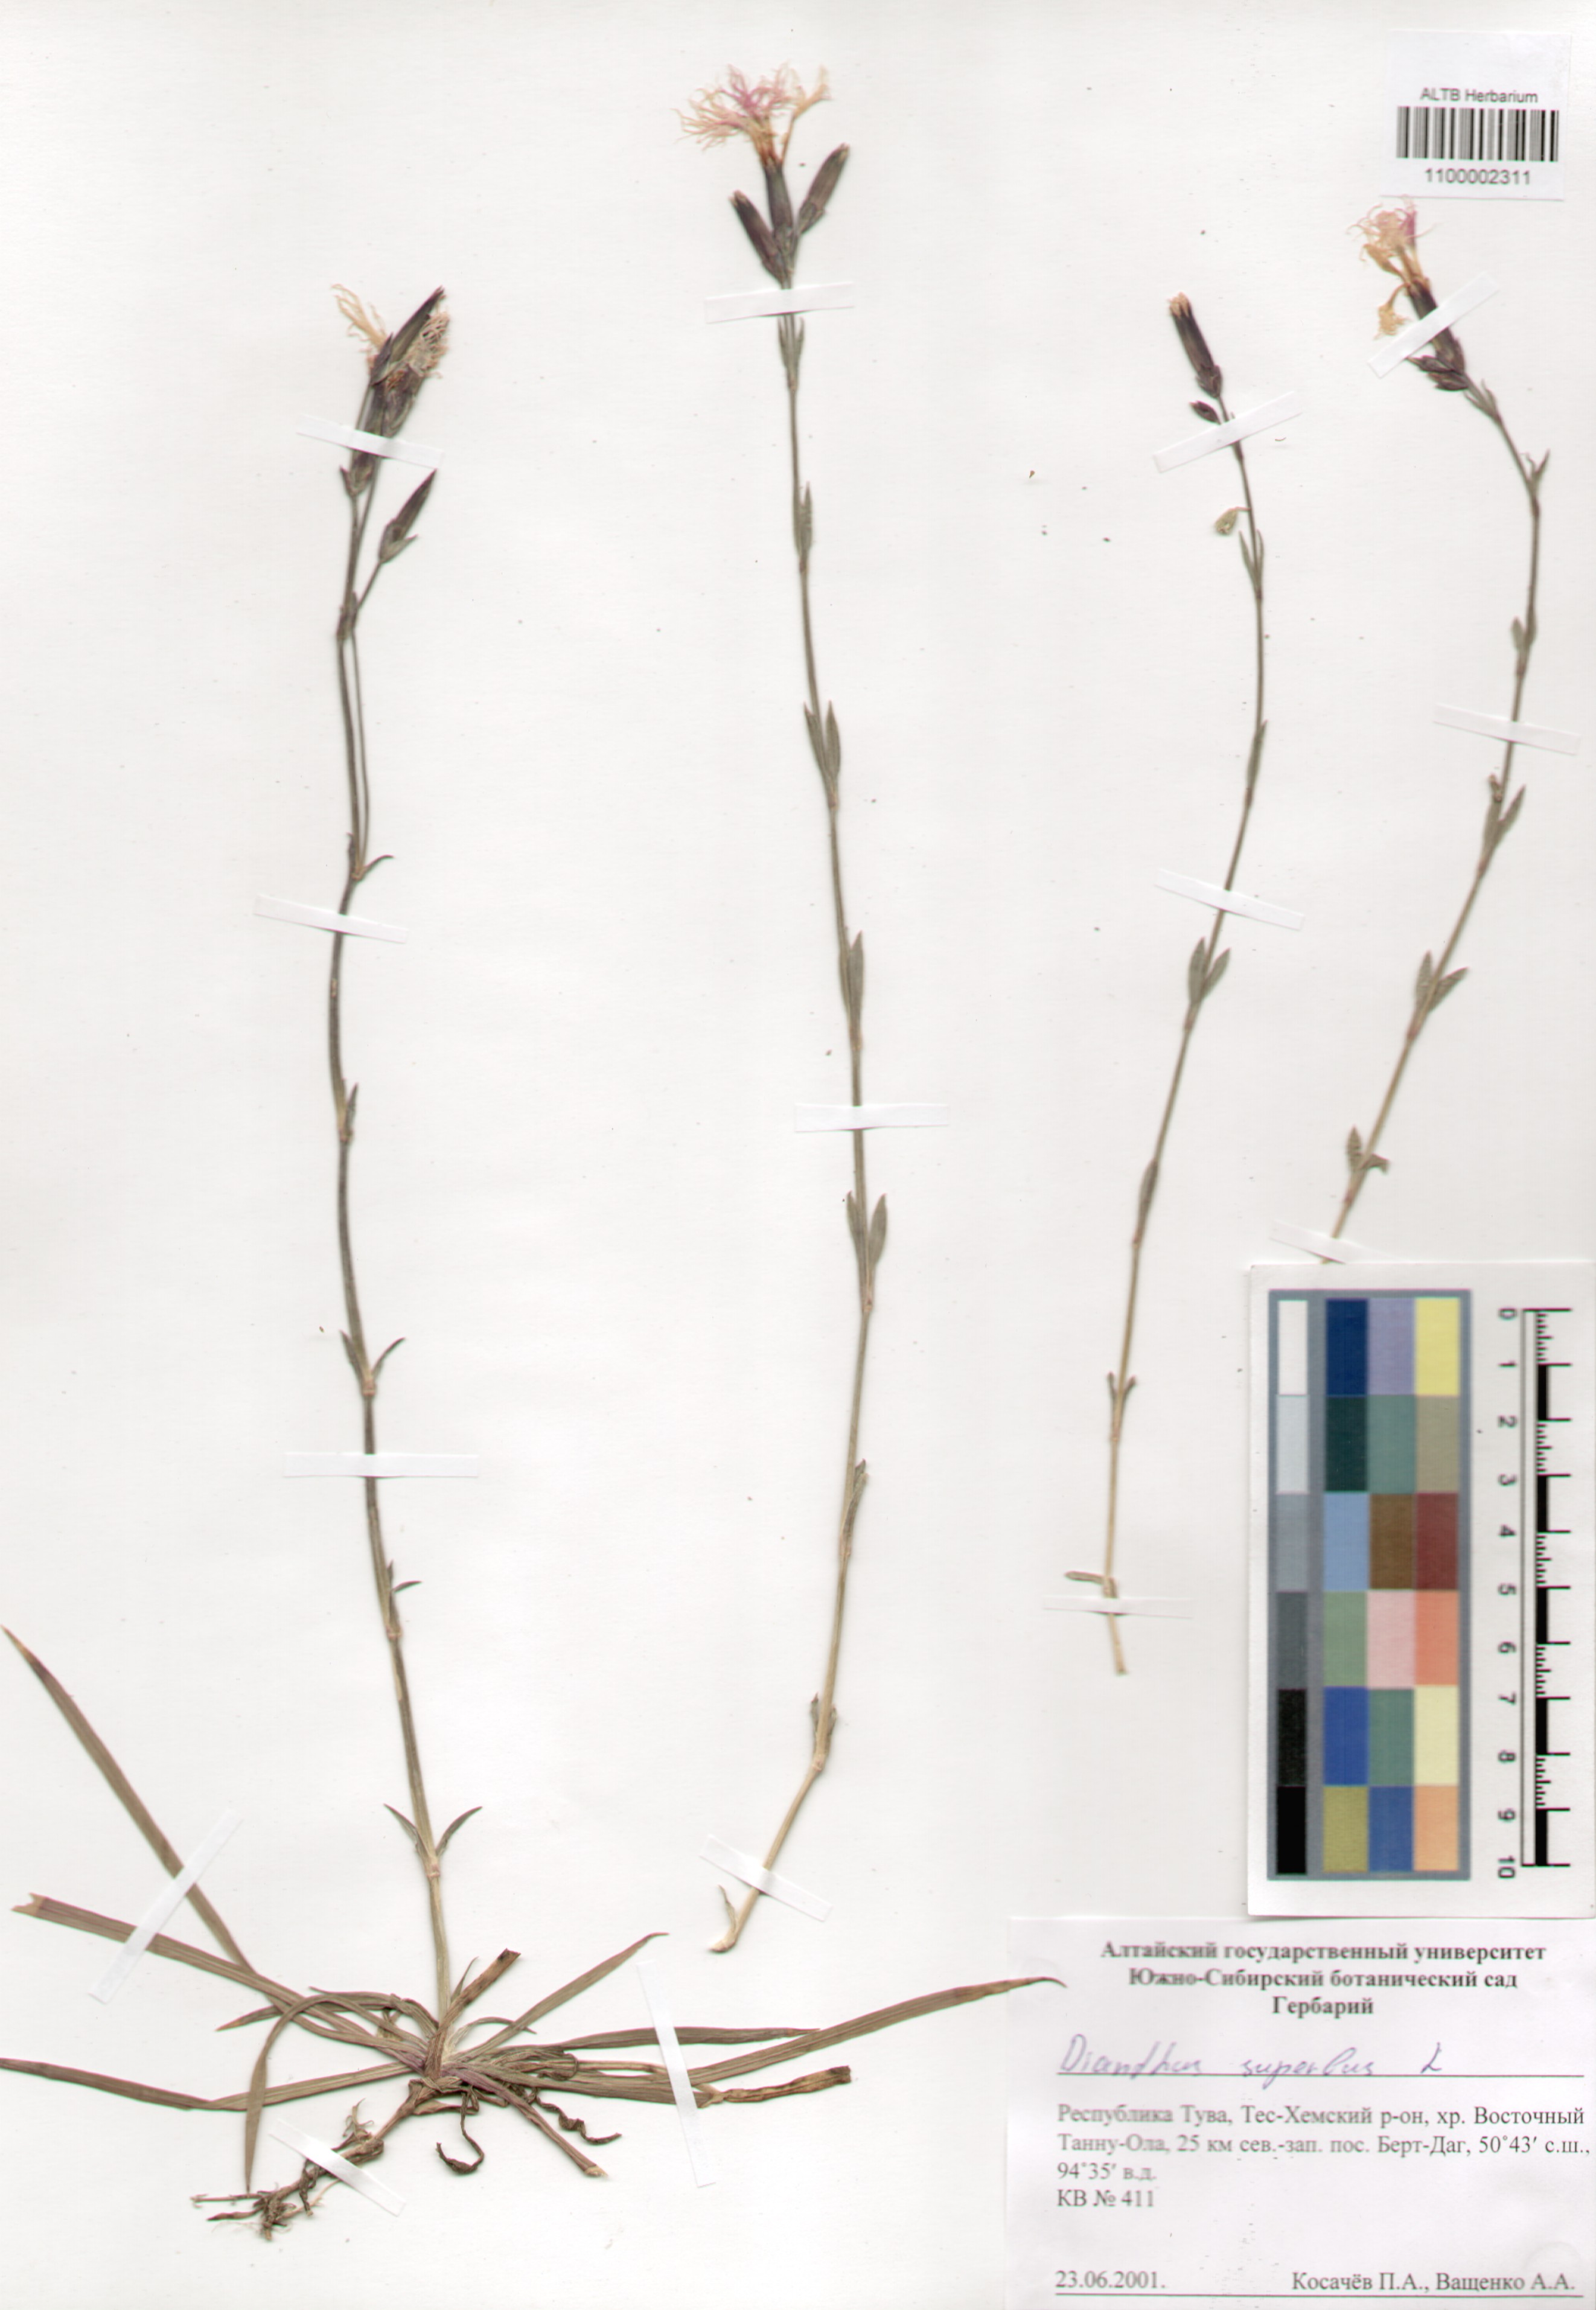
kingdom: Plantae
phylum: Tracheophyta
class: Magnoliopsida
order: Caryophyllales
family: Caryophyllaceae
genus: Dianthus
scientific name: Dianthus superbus
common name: Fringed pink
